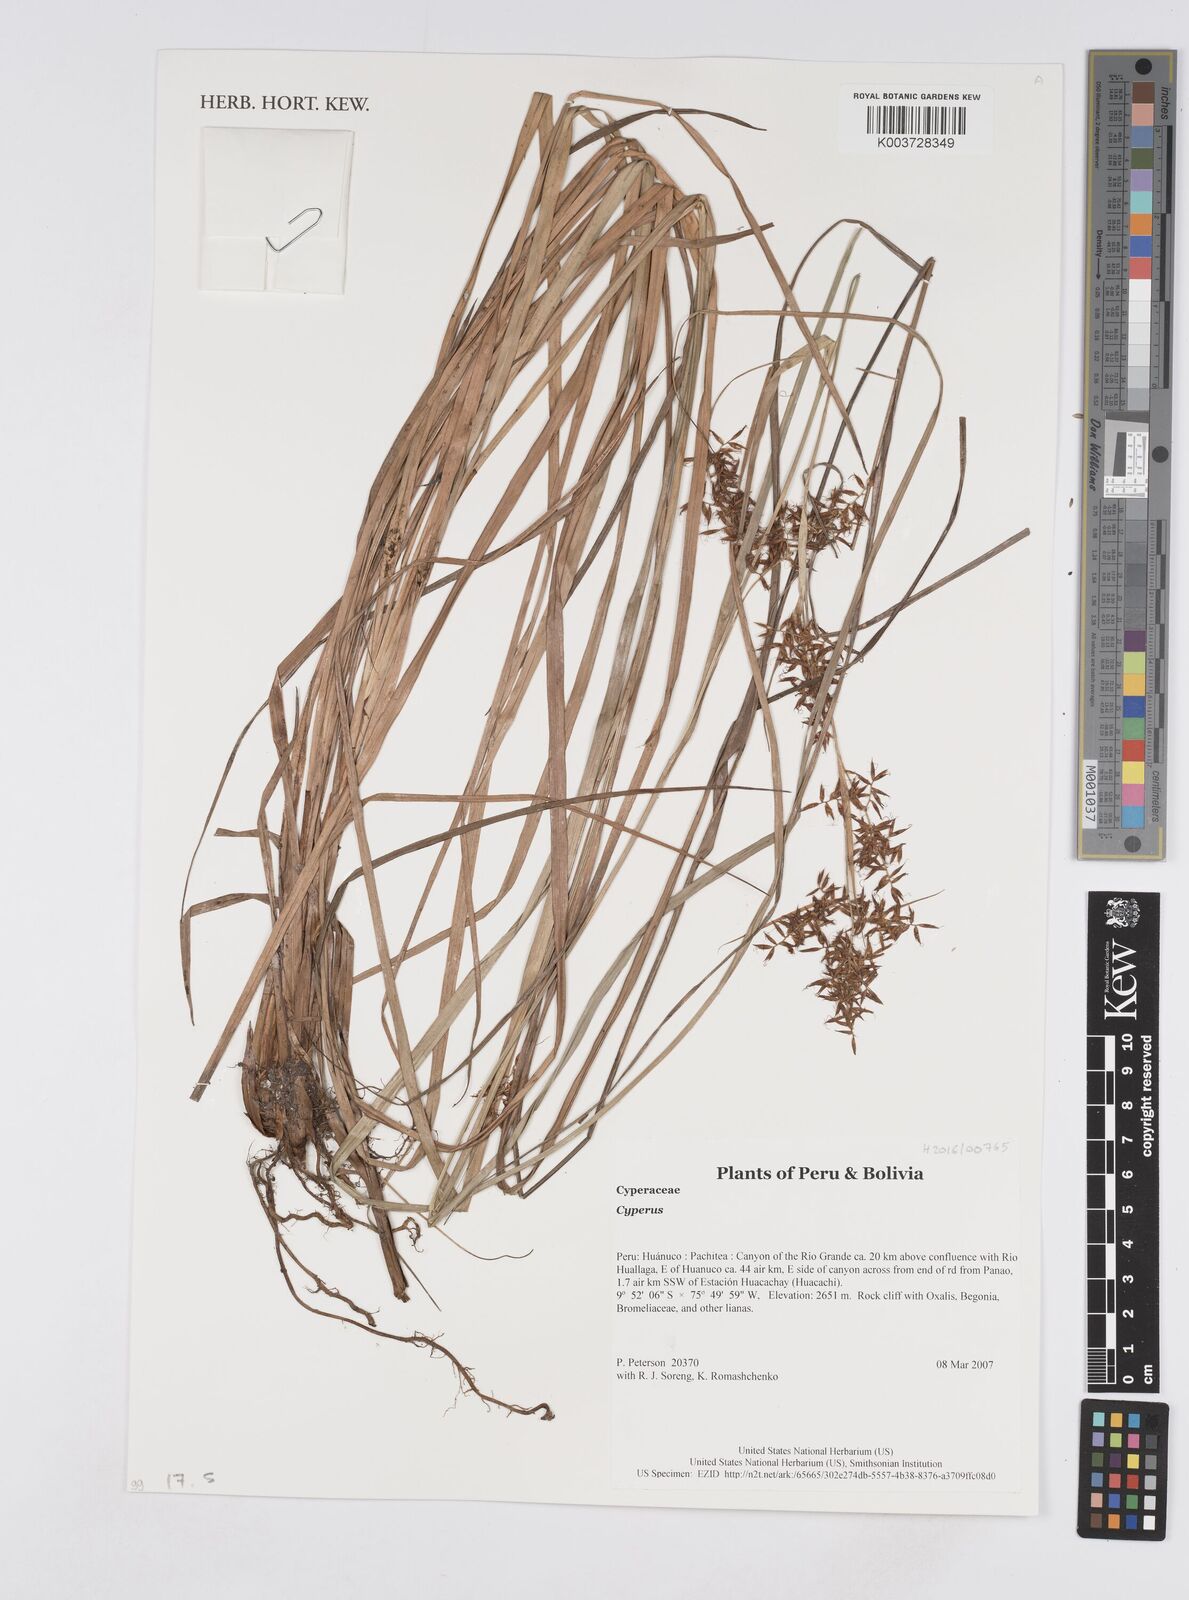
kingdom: Plantae
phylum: Tracheophyta
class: Liliopsida
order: Poales
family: Cyperaceae
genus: Cyperus
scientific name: Cyperus
